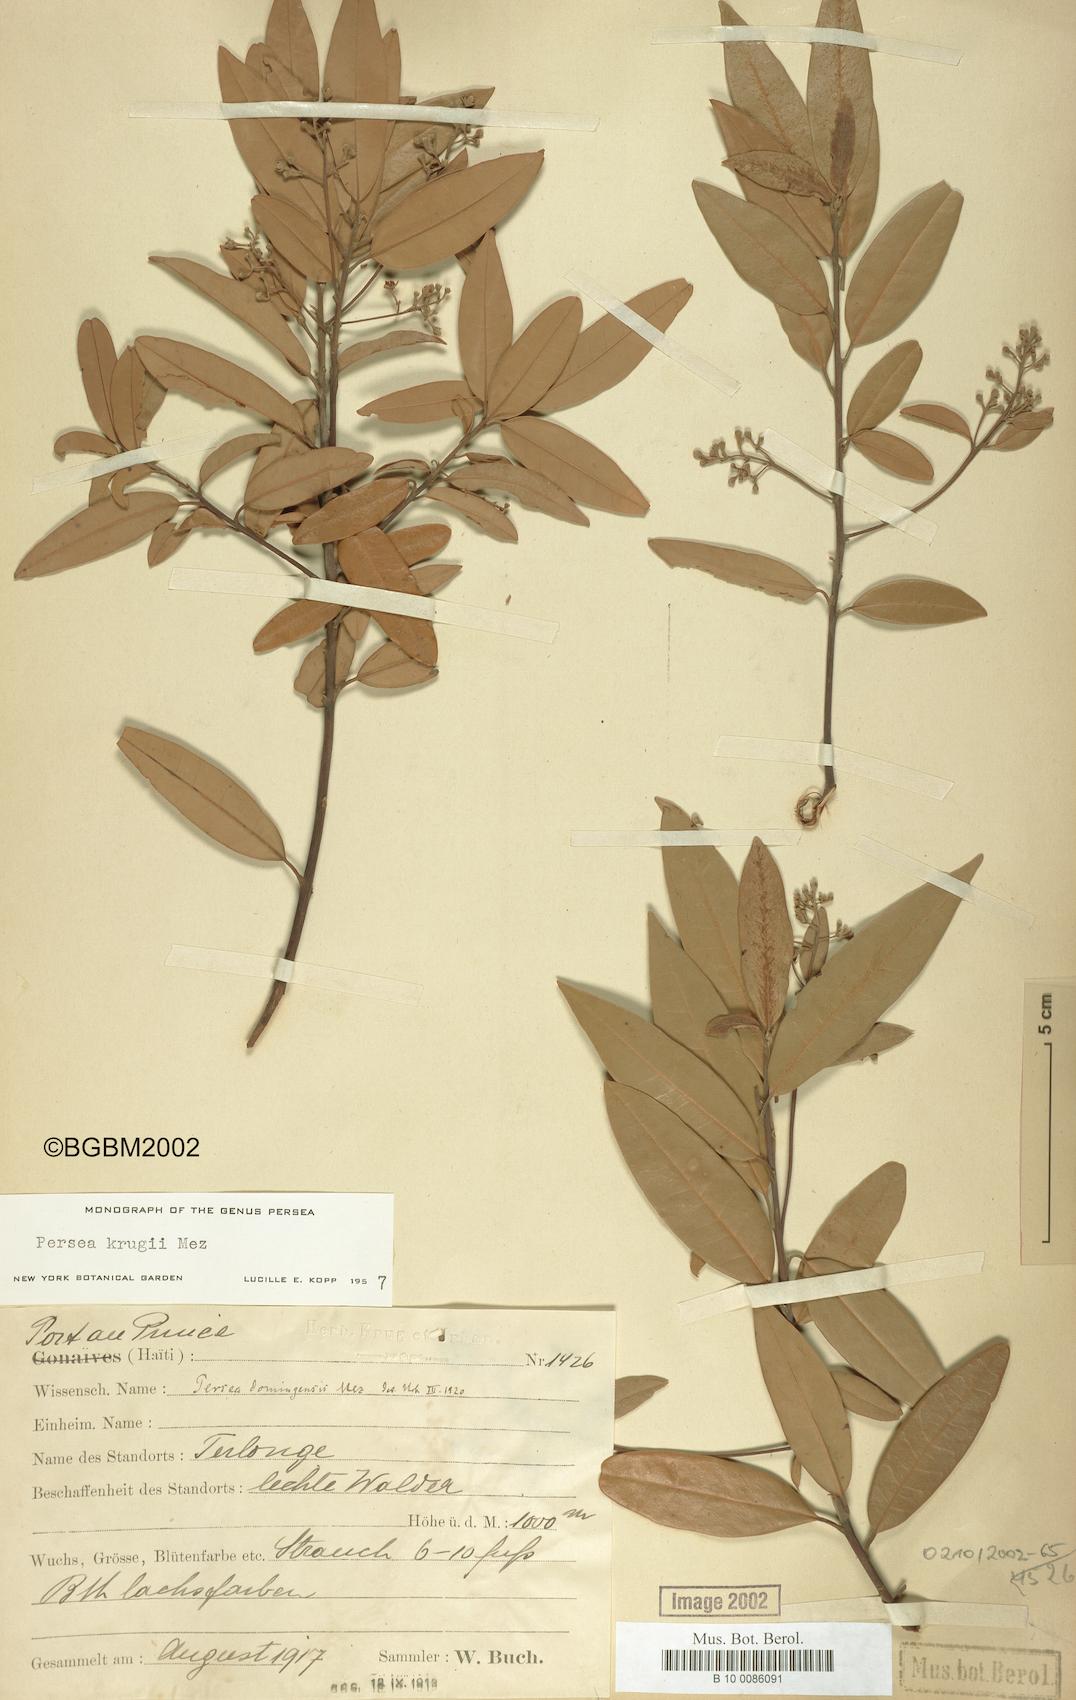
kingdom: Plantae
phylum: Tracheophyta
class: Magnoliopsida
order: Laurales
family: Lauraceae
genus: Persea
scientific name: Persea krugii
